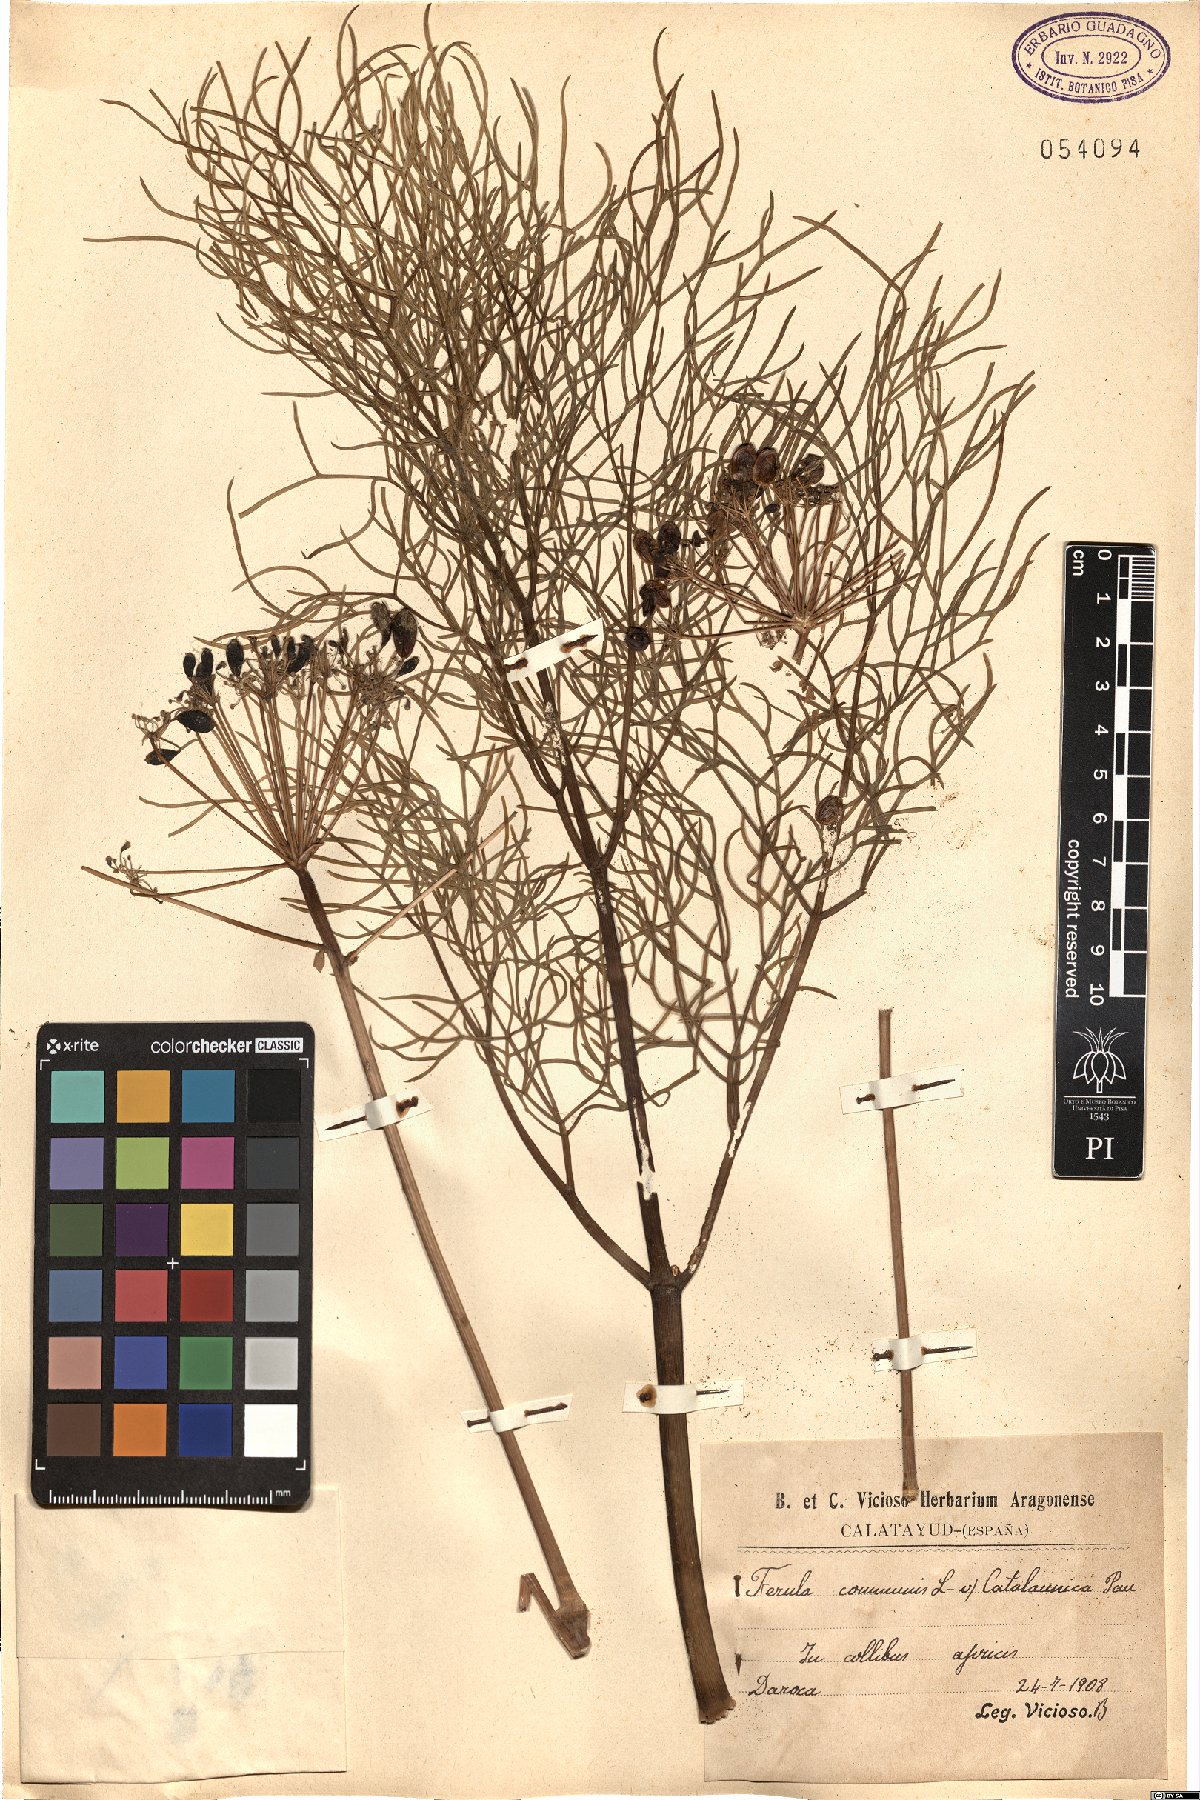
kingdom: Plantae
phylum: Tracheophyta
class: Magnoliopsida
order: Apiales
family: Apiaceae
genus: Ferula
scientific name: Ferula communis
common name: Giant fennel
